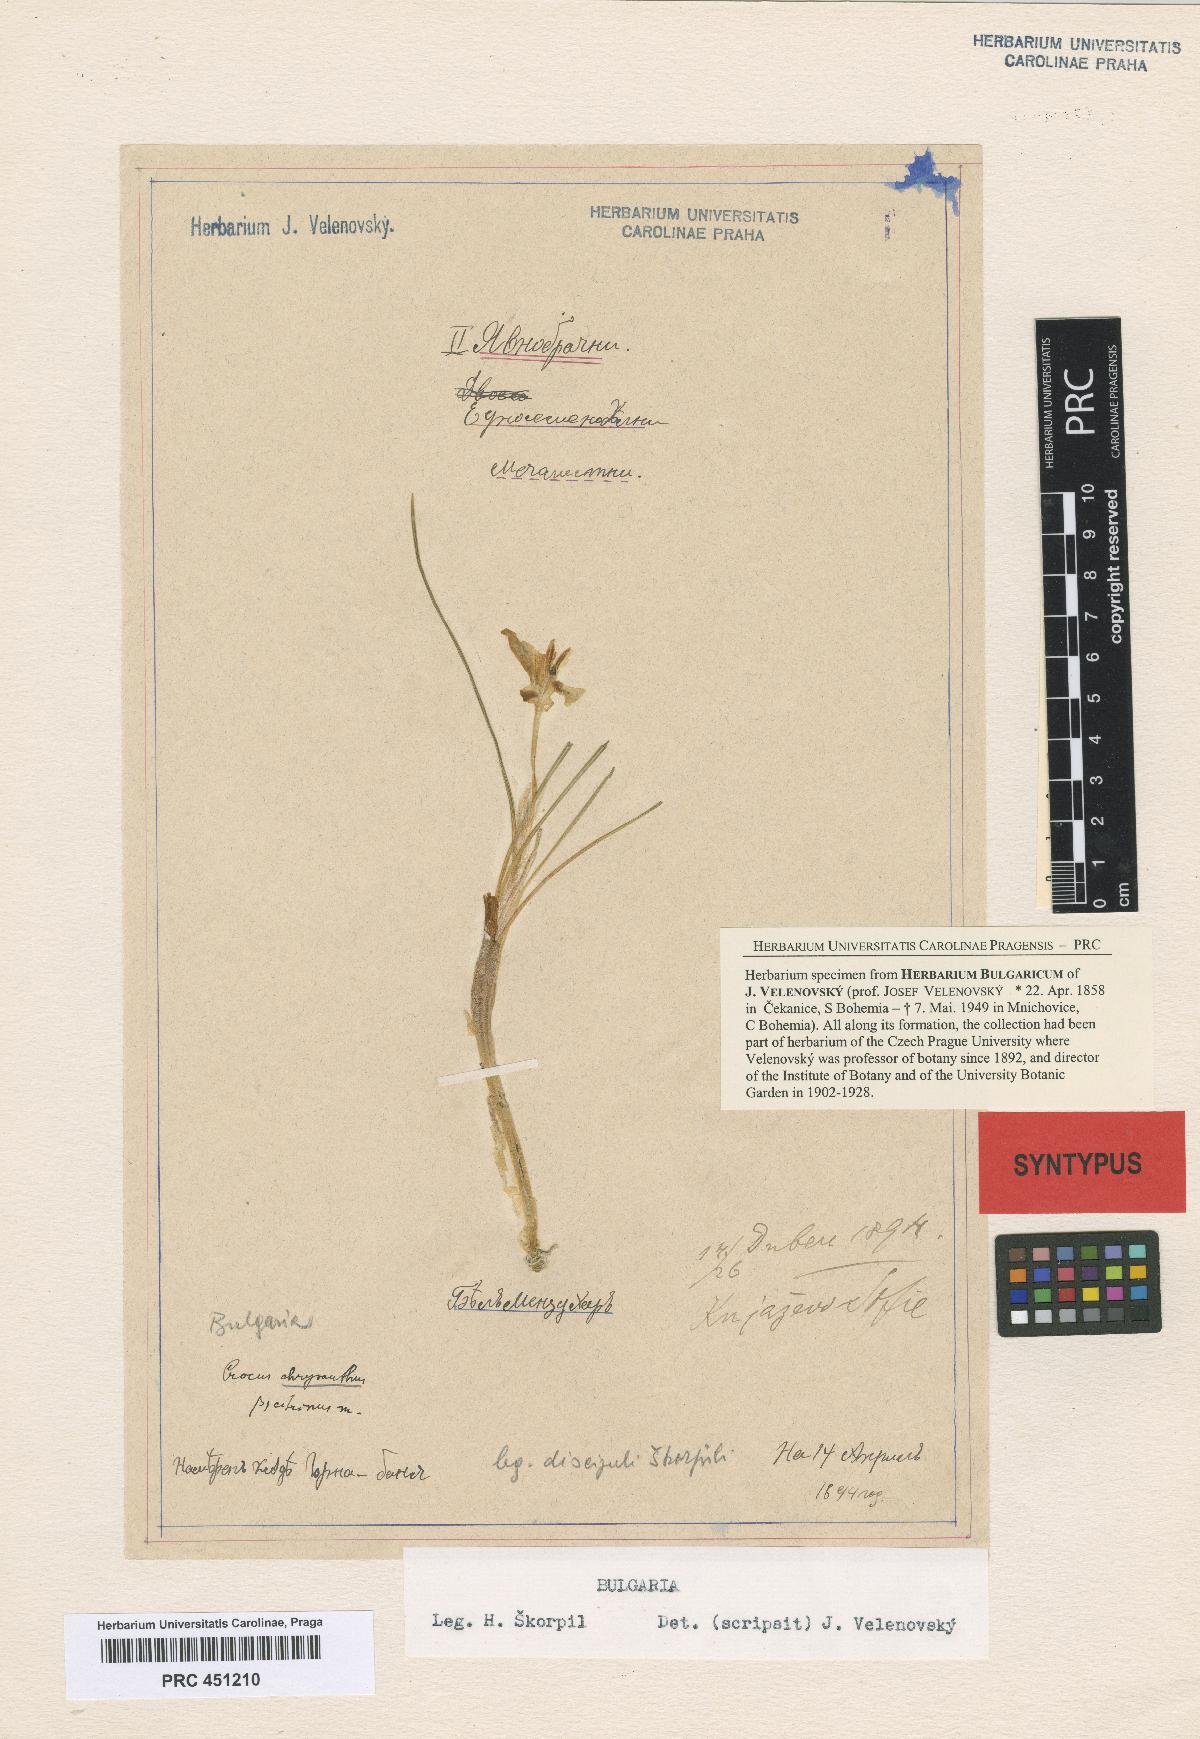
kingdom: Plantae
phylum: Tracheophyta
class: Liliopsida
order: Asparagales
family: Iridaceae
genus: Crocus
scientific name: Crocus chrysanthus
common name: Golden crocus
